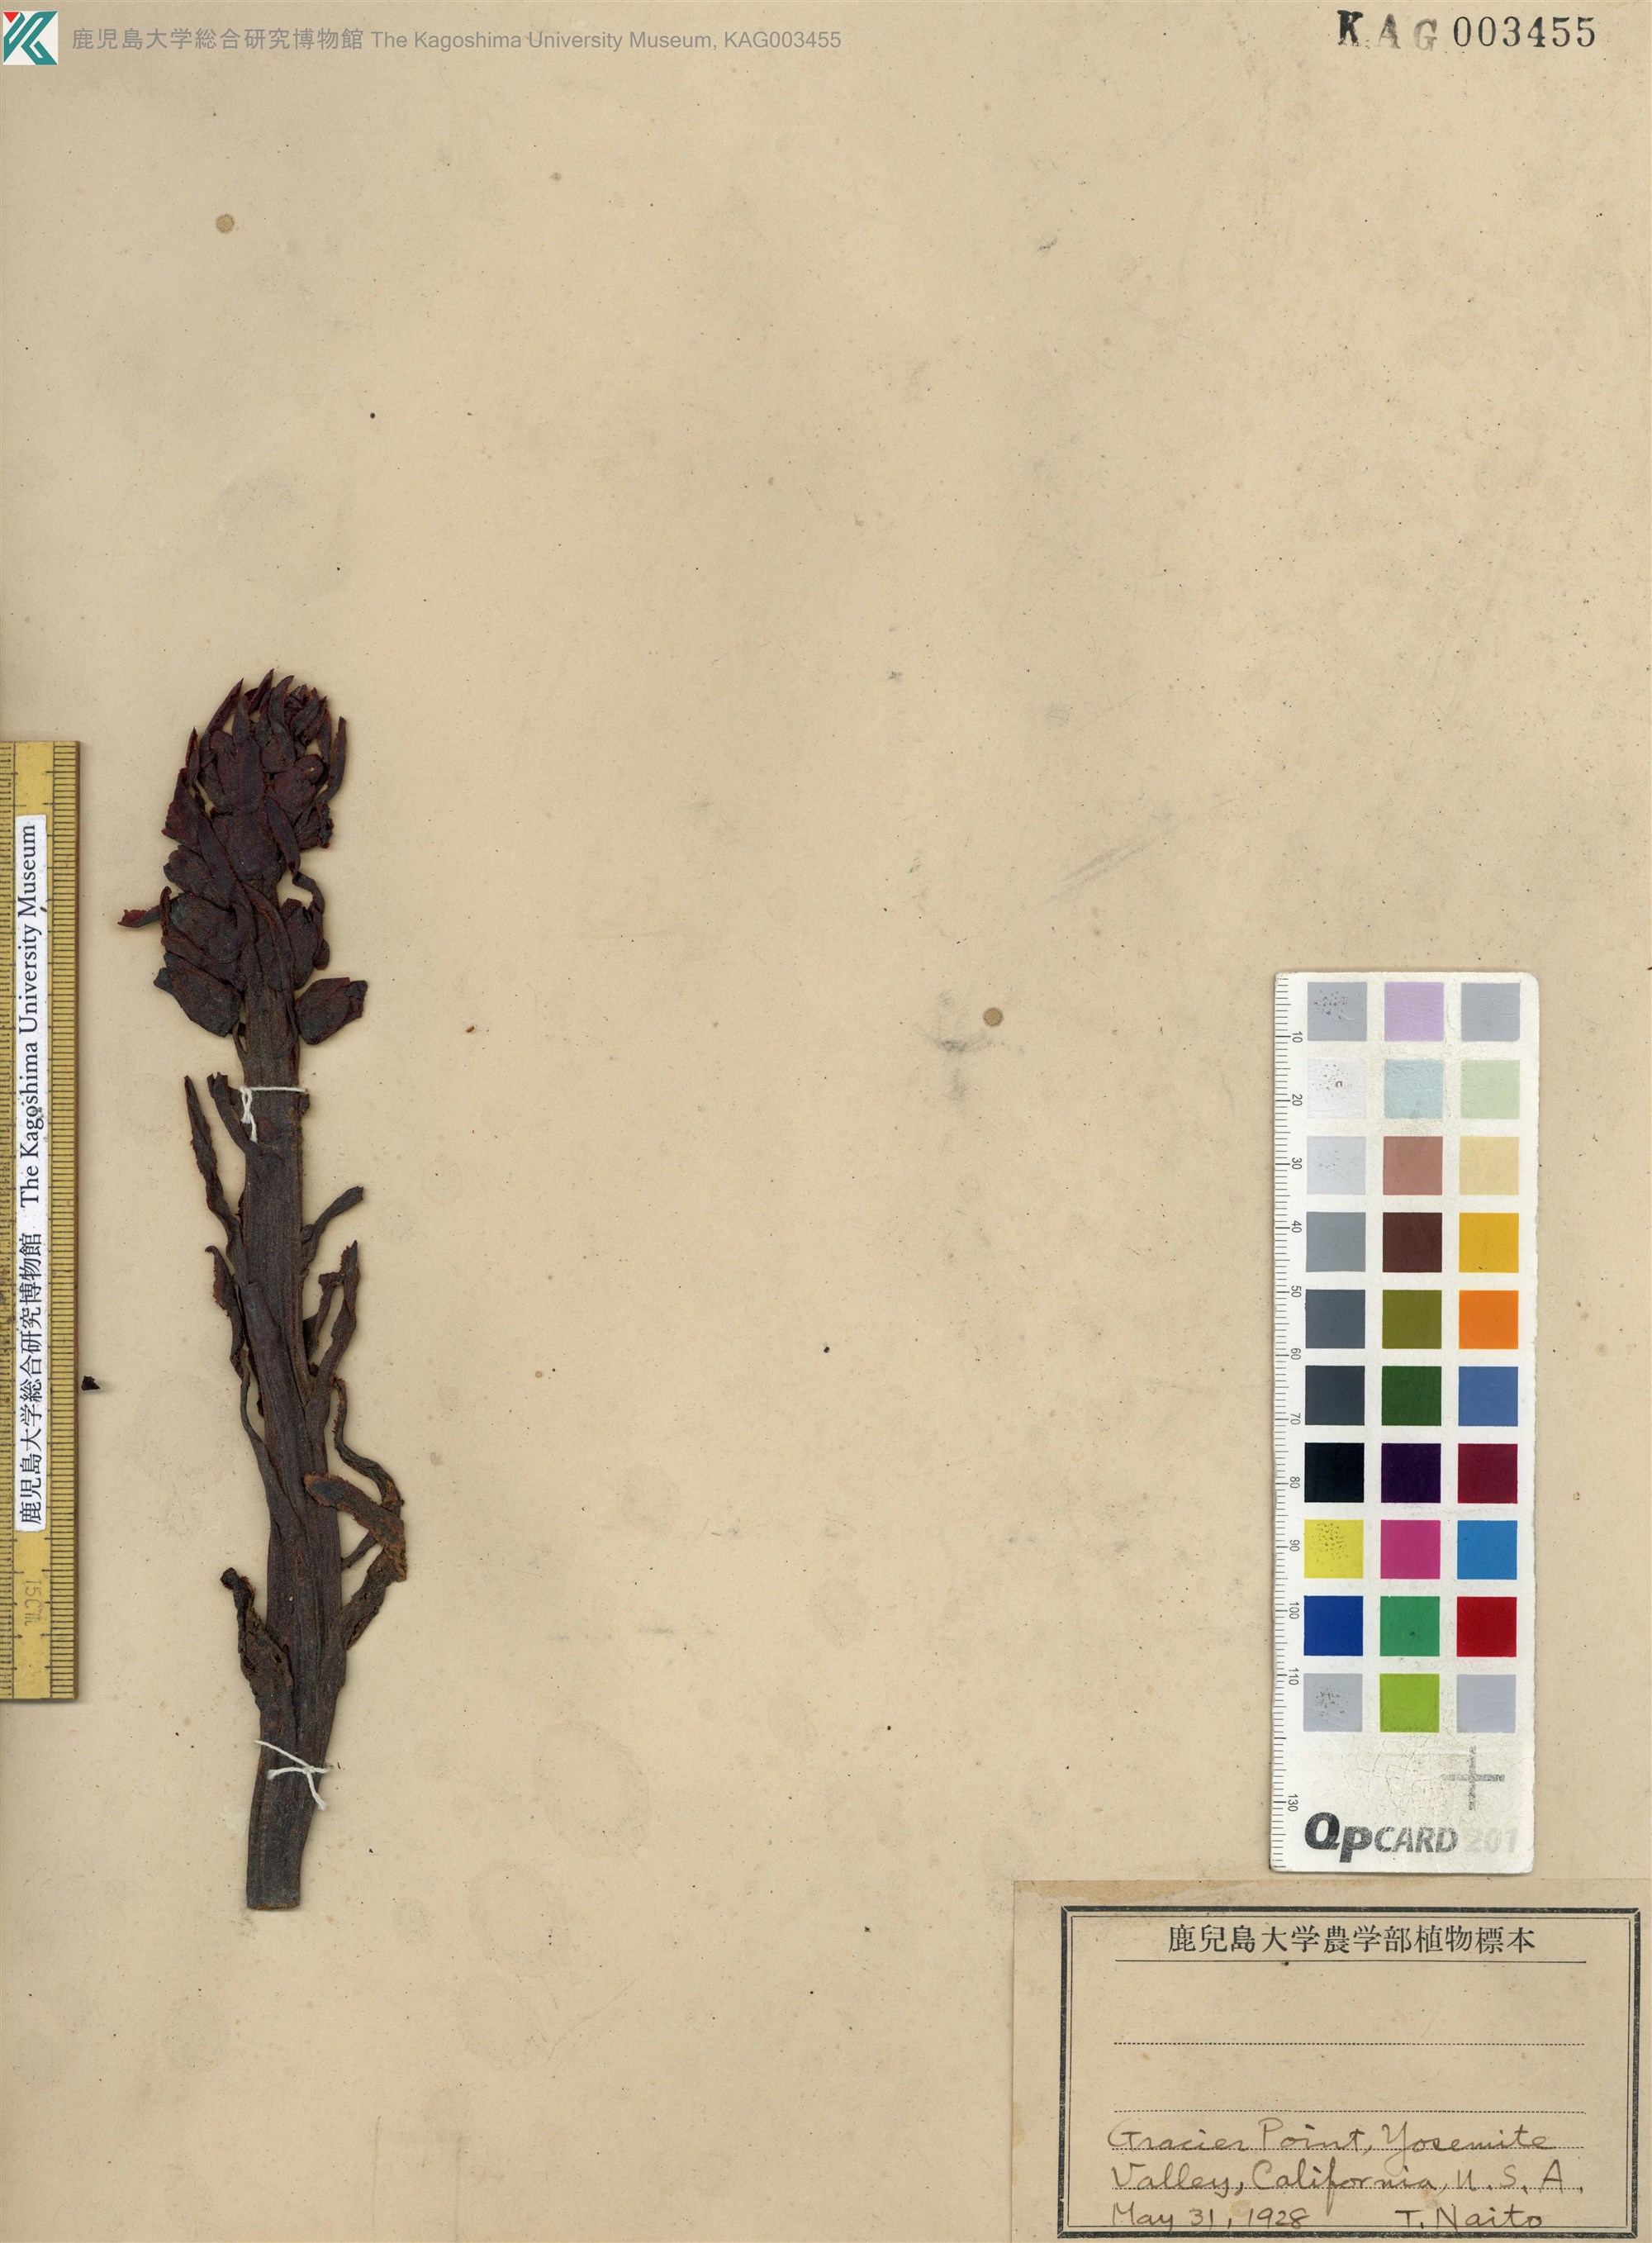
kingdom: Plantae
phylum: Tracheophyta
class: Magnoliopsida
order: Ericales
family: Ericaceae
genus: Sarcodes
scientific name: Sarcodes sanguinea
